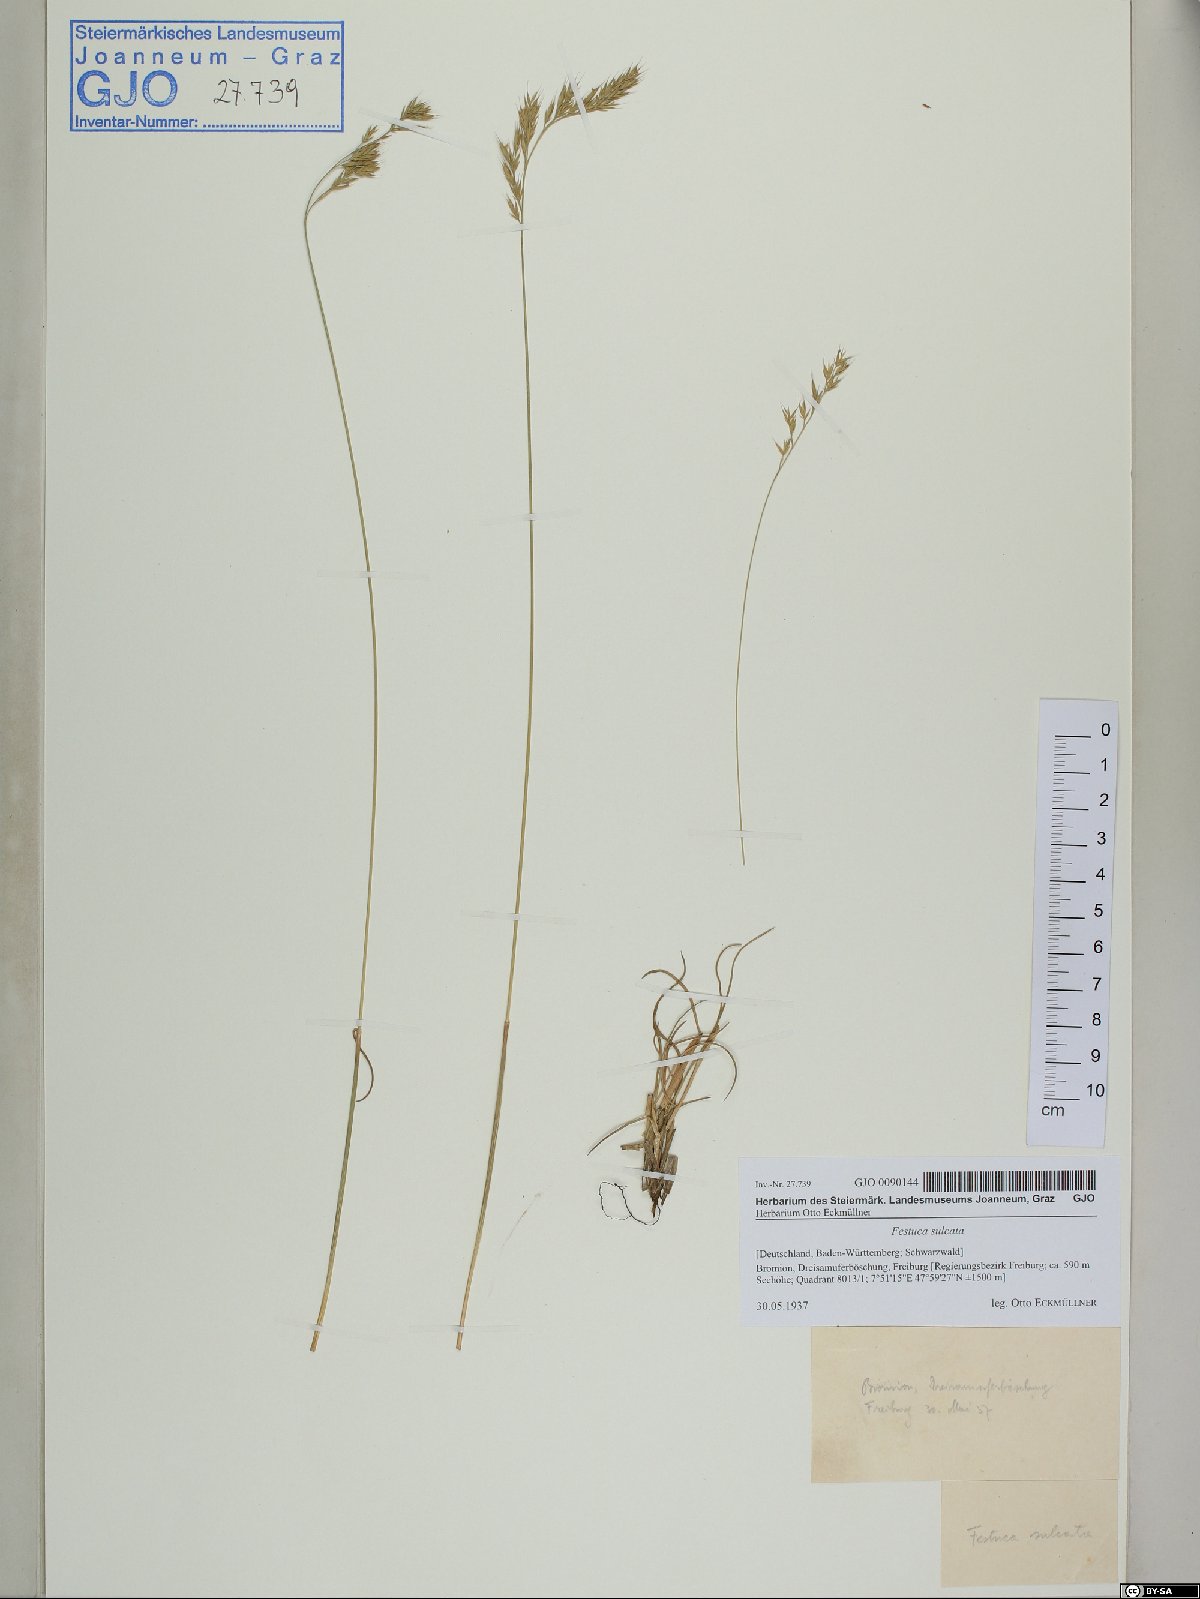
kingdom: Plantae
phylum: Tracheophyta
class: Liliopsida
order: Poales
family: Poaceae
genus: Festuca
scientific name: Festuca rupicola
